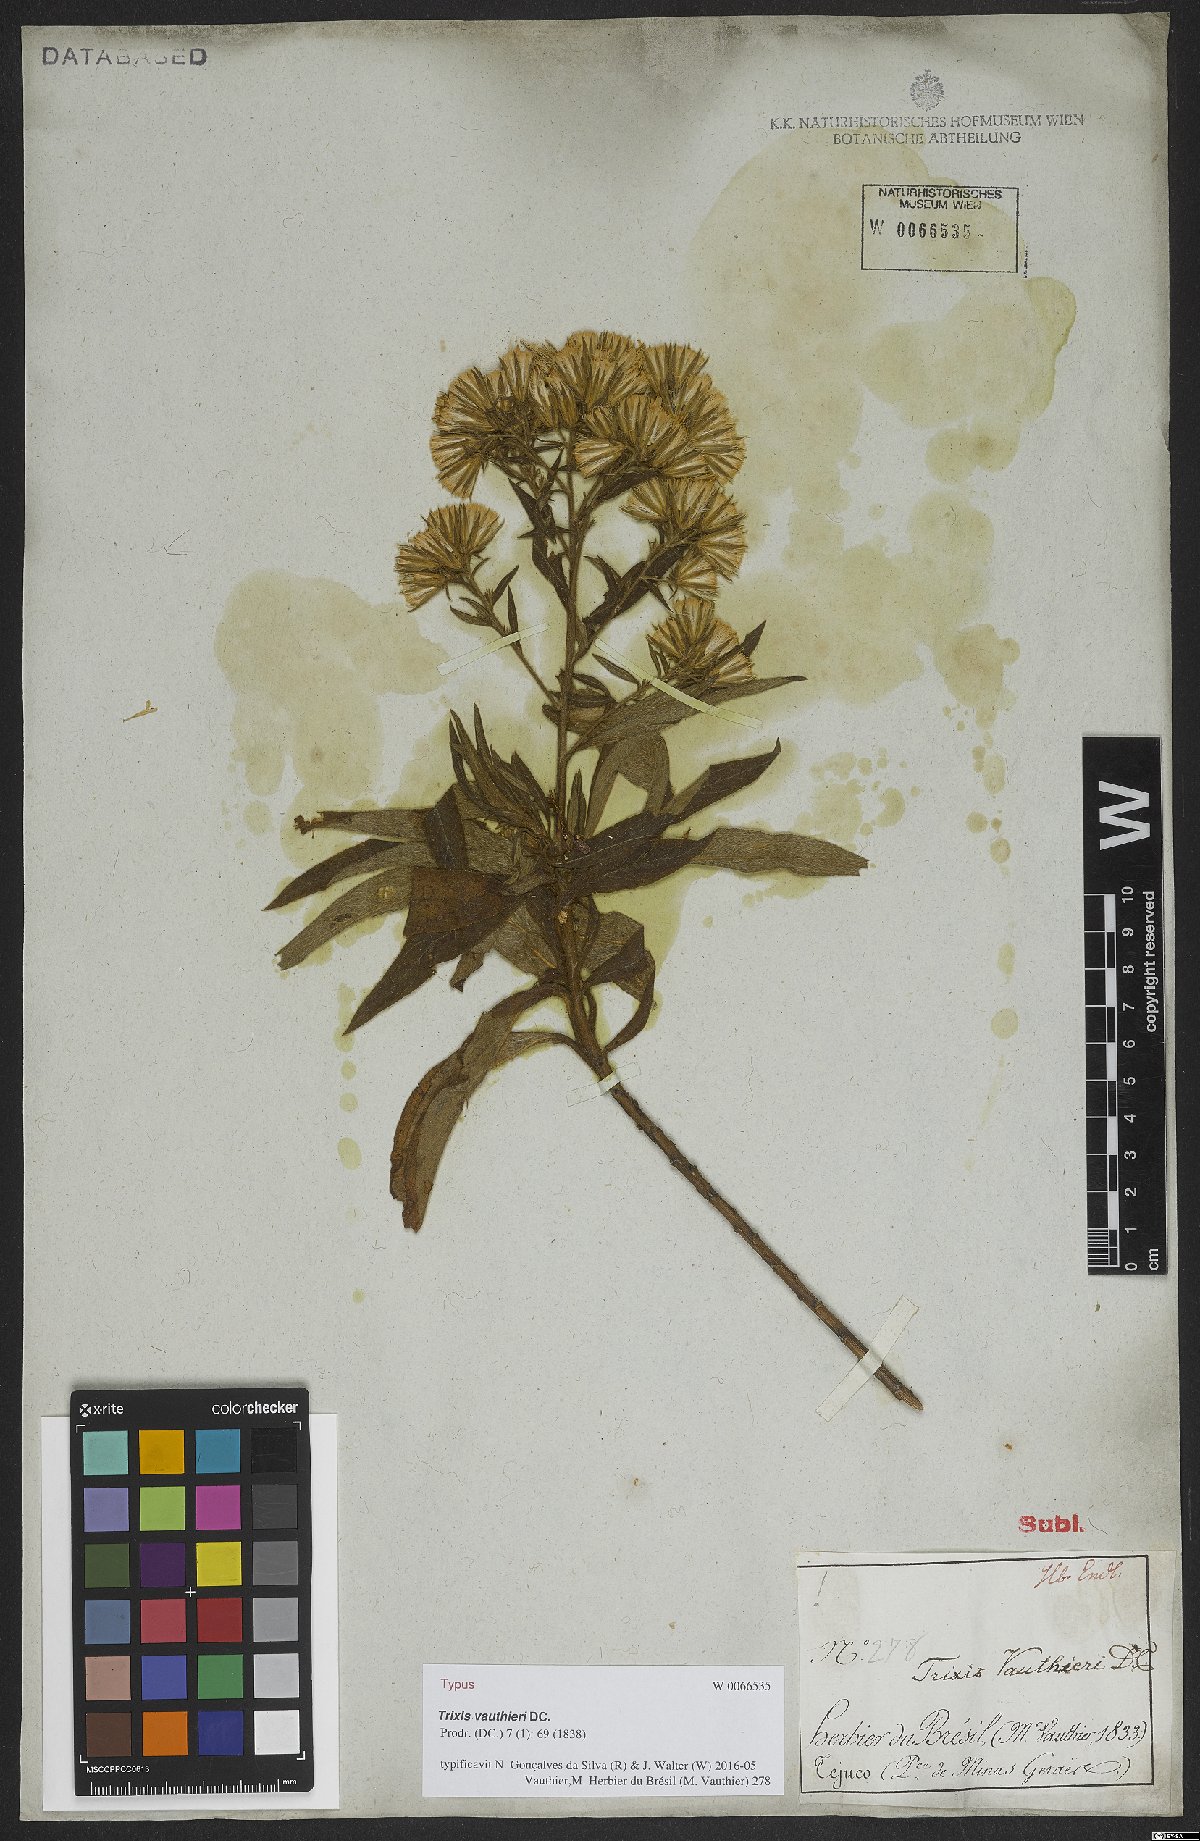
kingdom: Plantae
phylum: Tracheophyta
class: Magnoliopsida
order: Asterales
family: Asteraceae
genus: Trixis
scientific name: Trixis vauthieri
